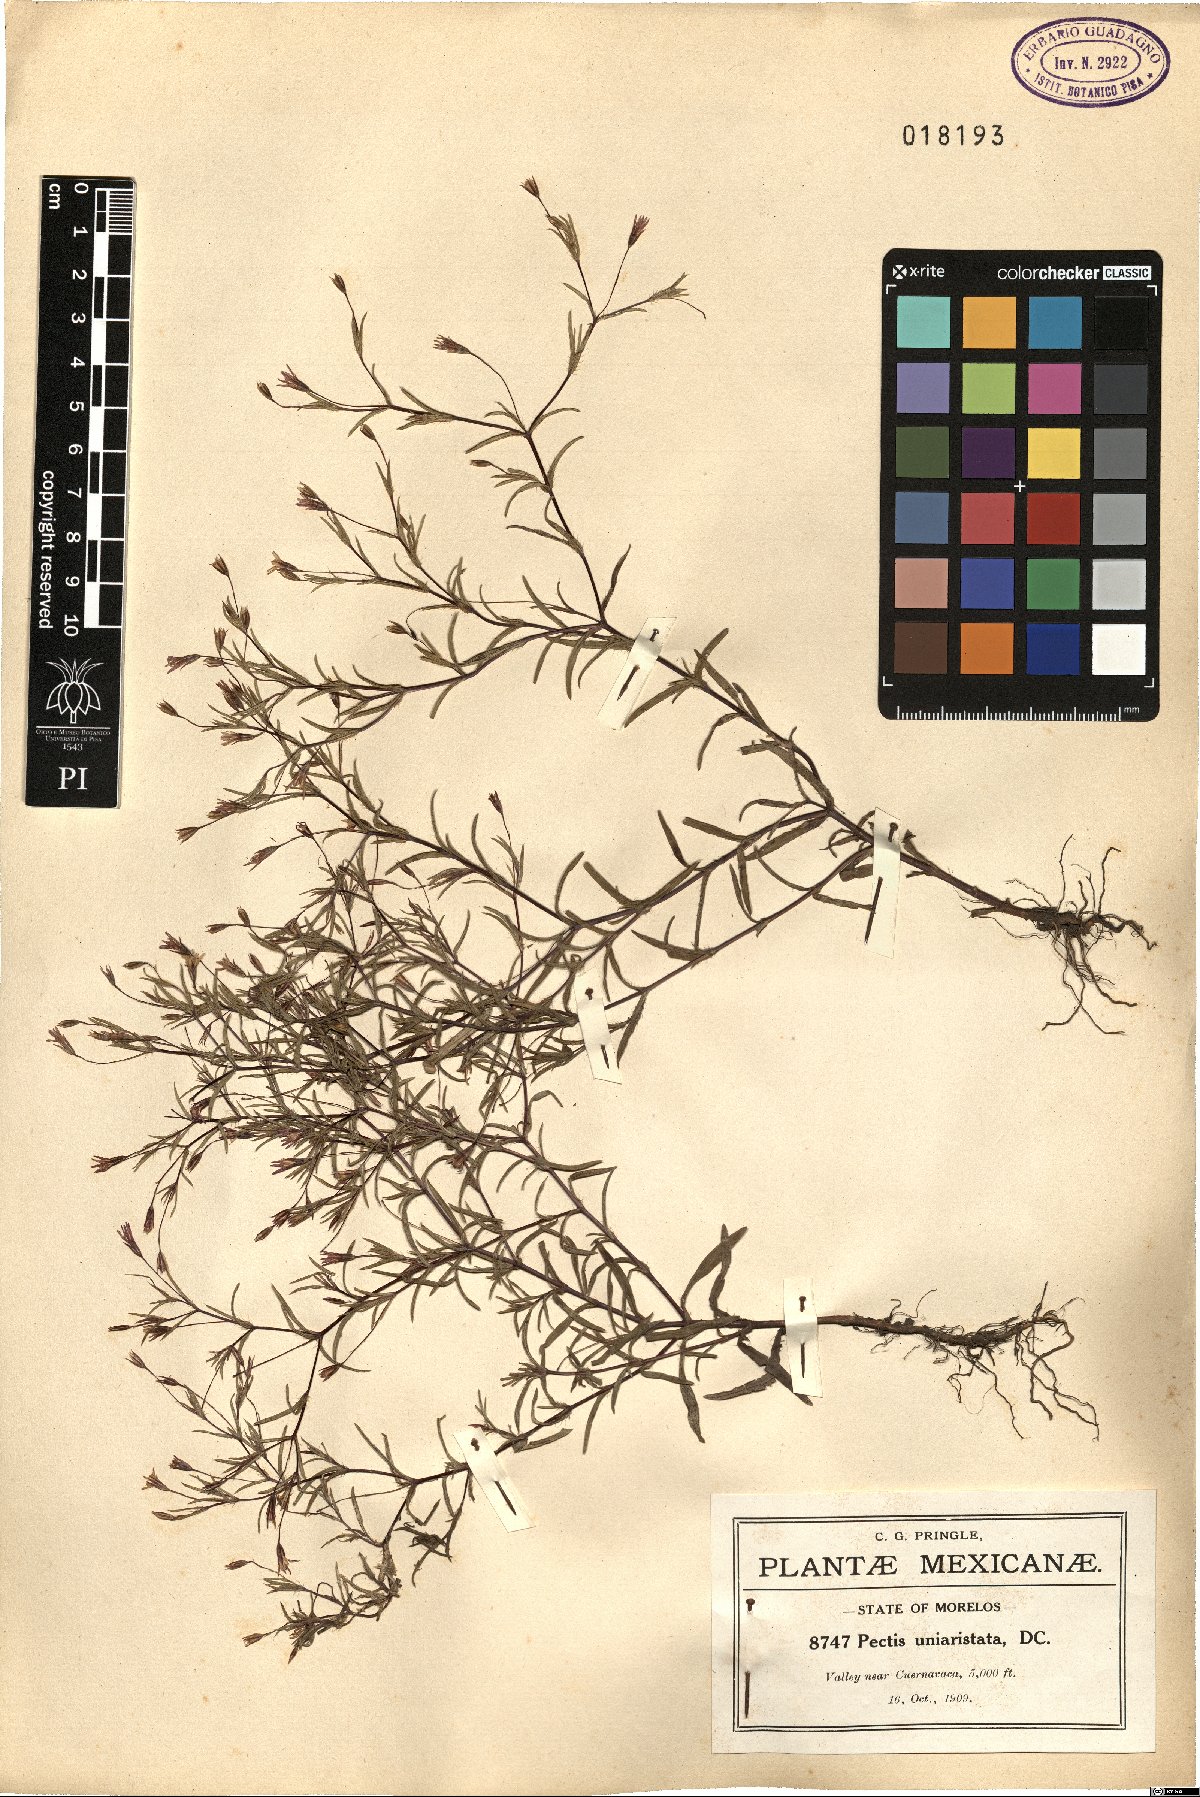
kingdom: Plantae
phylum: Tracheophyta
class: Magnoliopsida
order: Asterales
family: Asteraceae
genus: Pectis
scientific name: Pectis uniaristata
